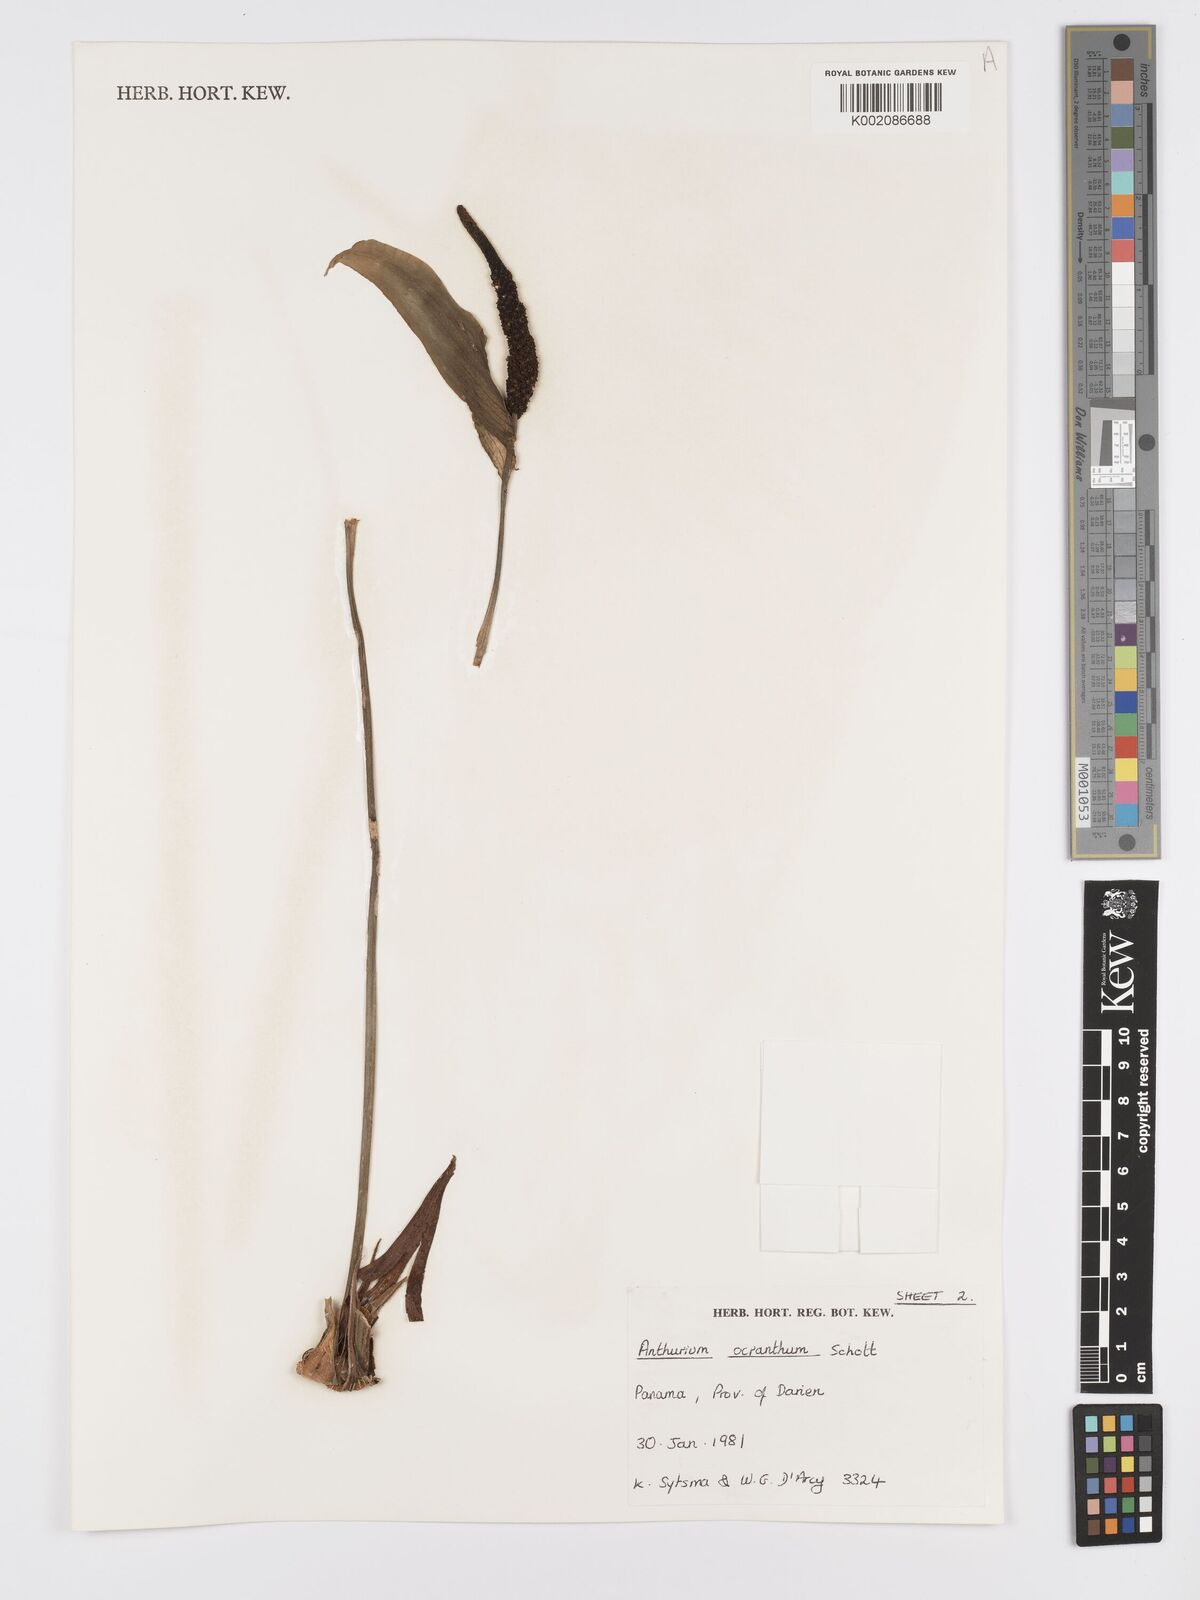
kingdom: Plantae
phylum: Tracheophyta
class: Liliopsida
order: Alismatales
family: Araceae
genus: Anthurium
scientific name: Anthurium ochranthum
